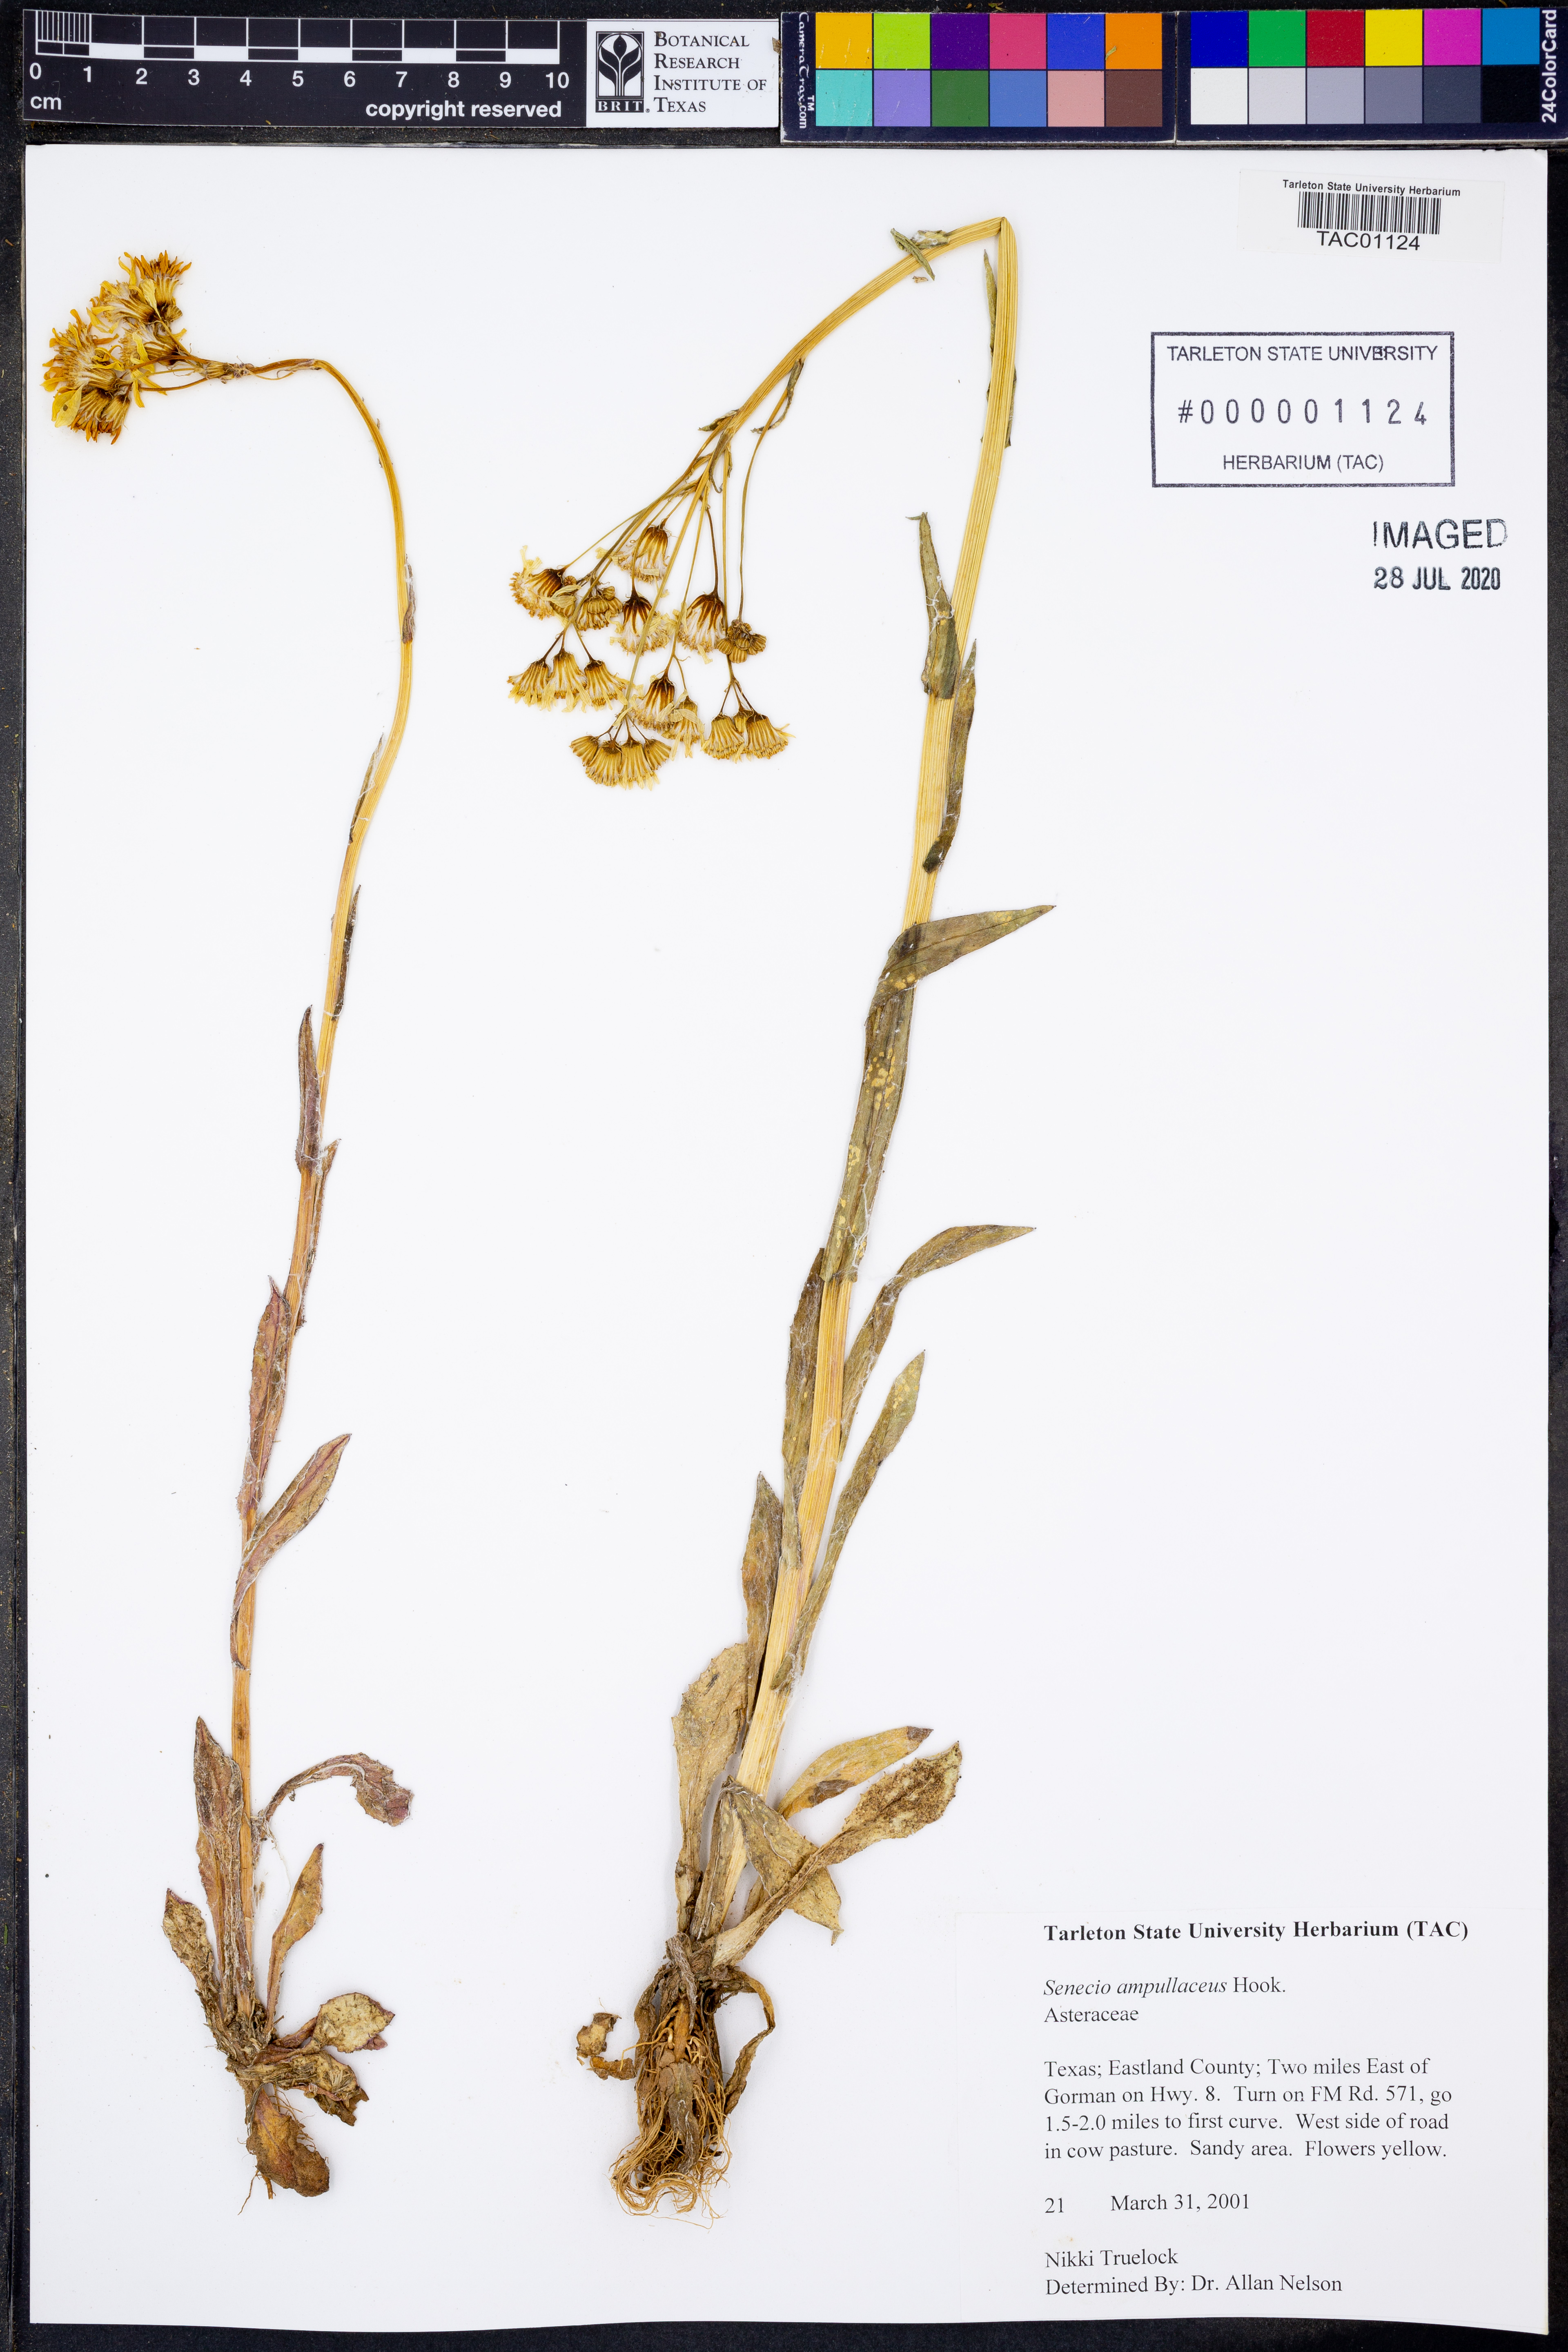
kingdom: Plantae
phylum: Tracheophyta
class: Magnoliopsida
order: Asterales
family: Asteraceae
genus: Senecio
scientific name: Senecio ampullaceus
